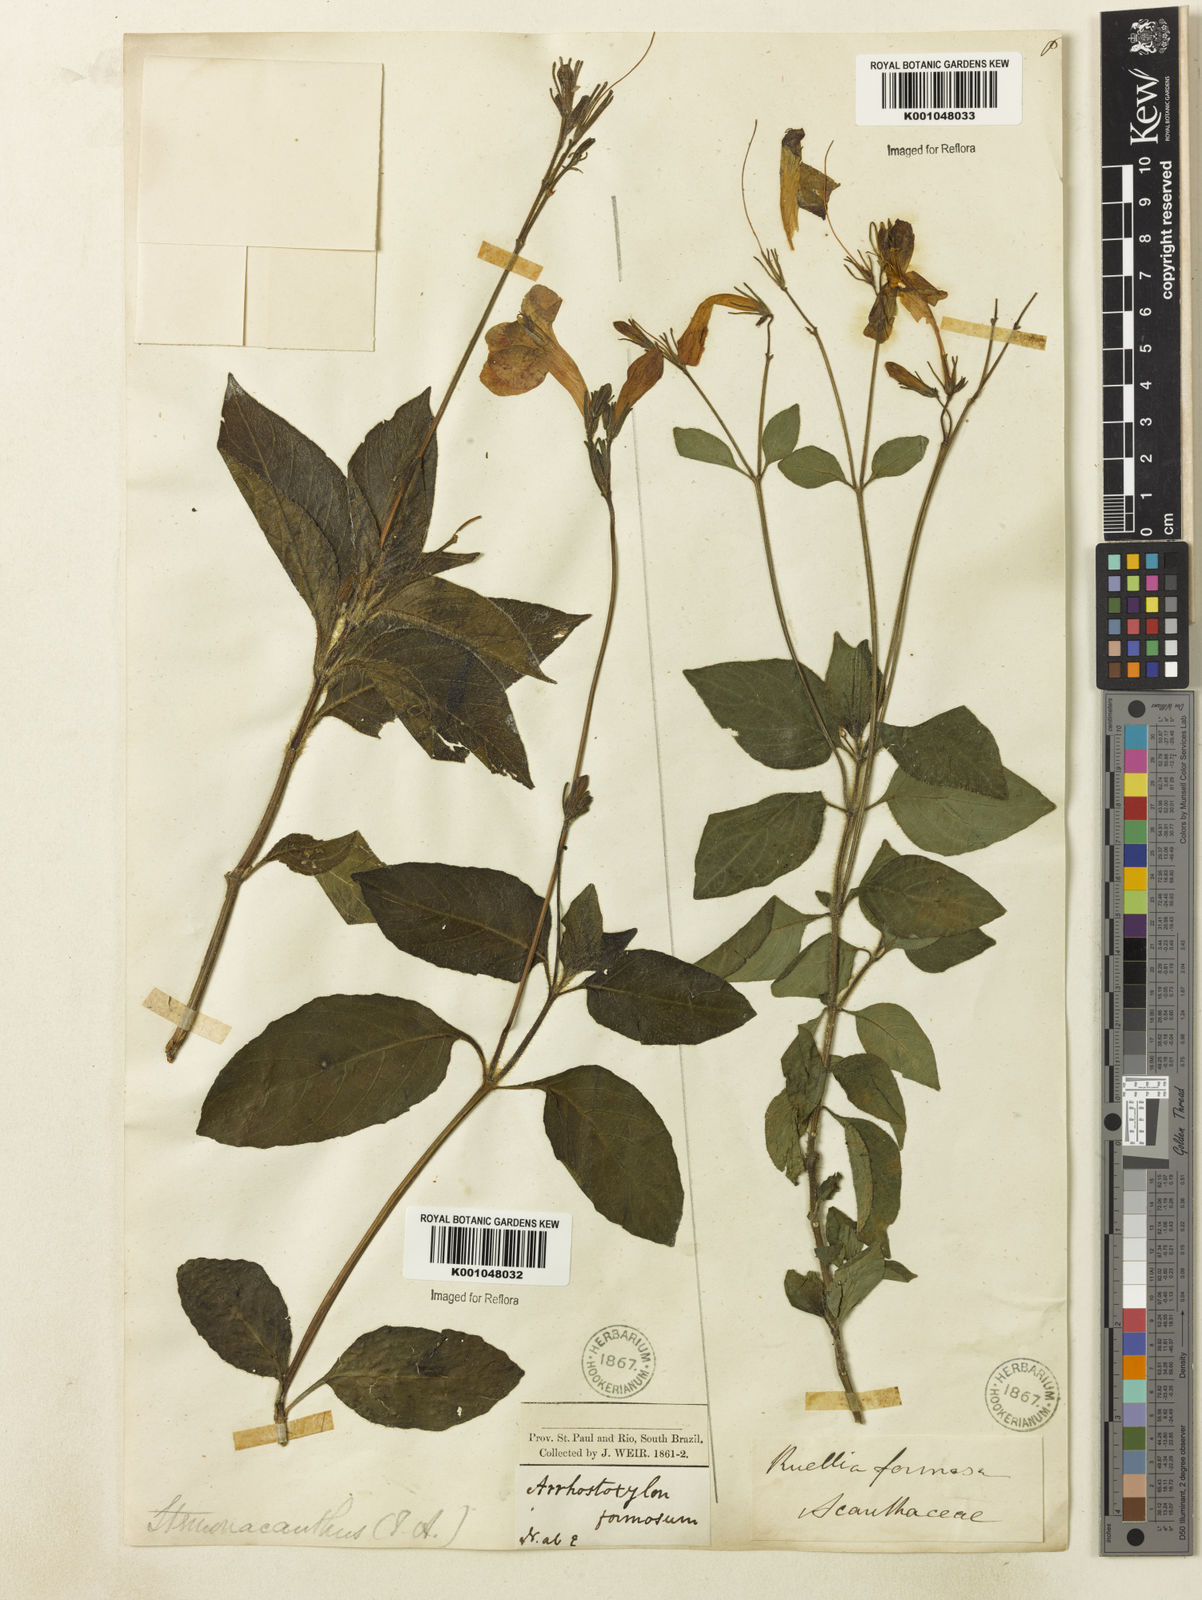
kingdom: Plantae
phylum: Tracheophyta
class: Magnoliopsida
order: Lamiales
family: Acanthaceae
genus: Ruellia
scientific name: Ruellia elegans
